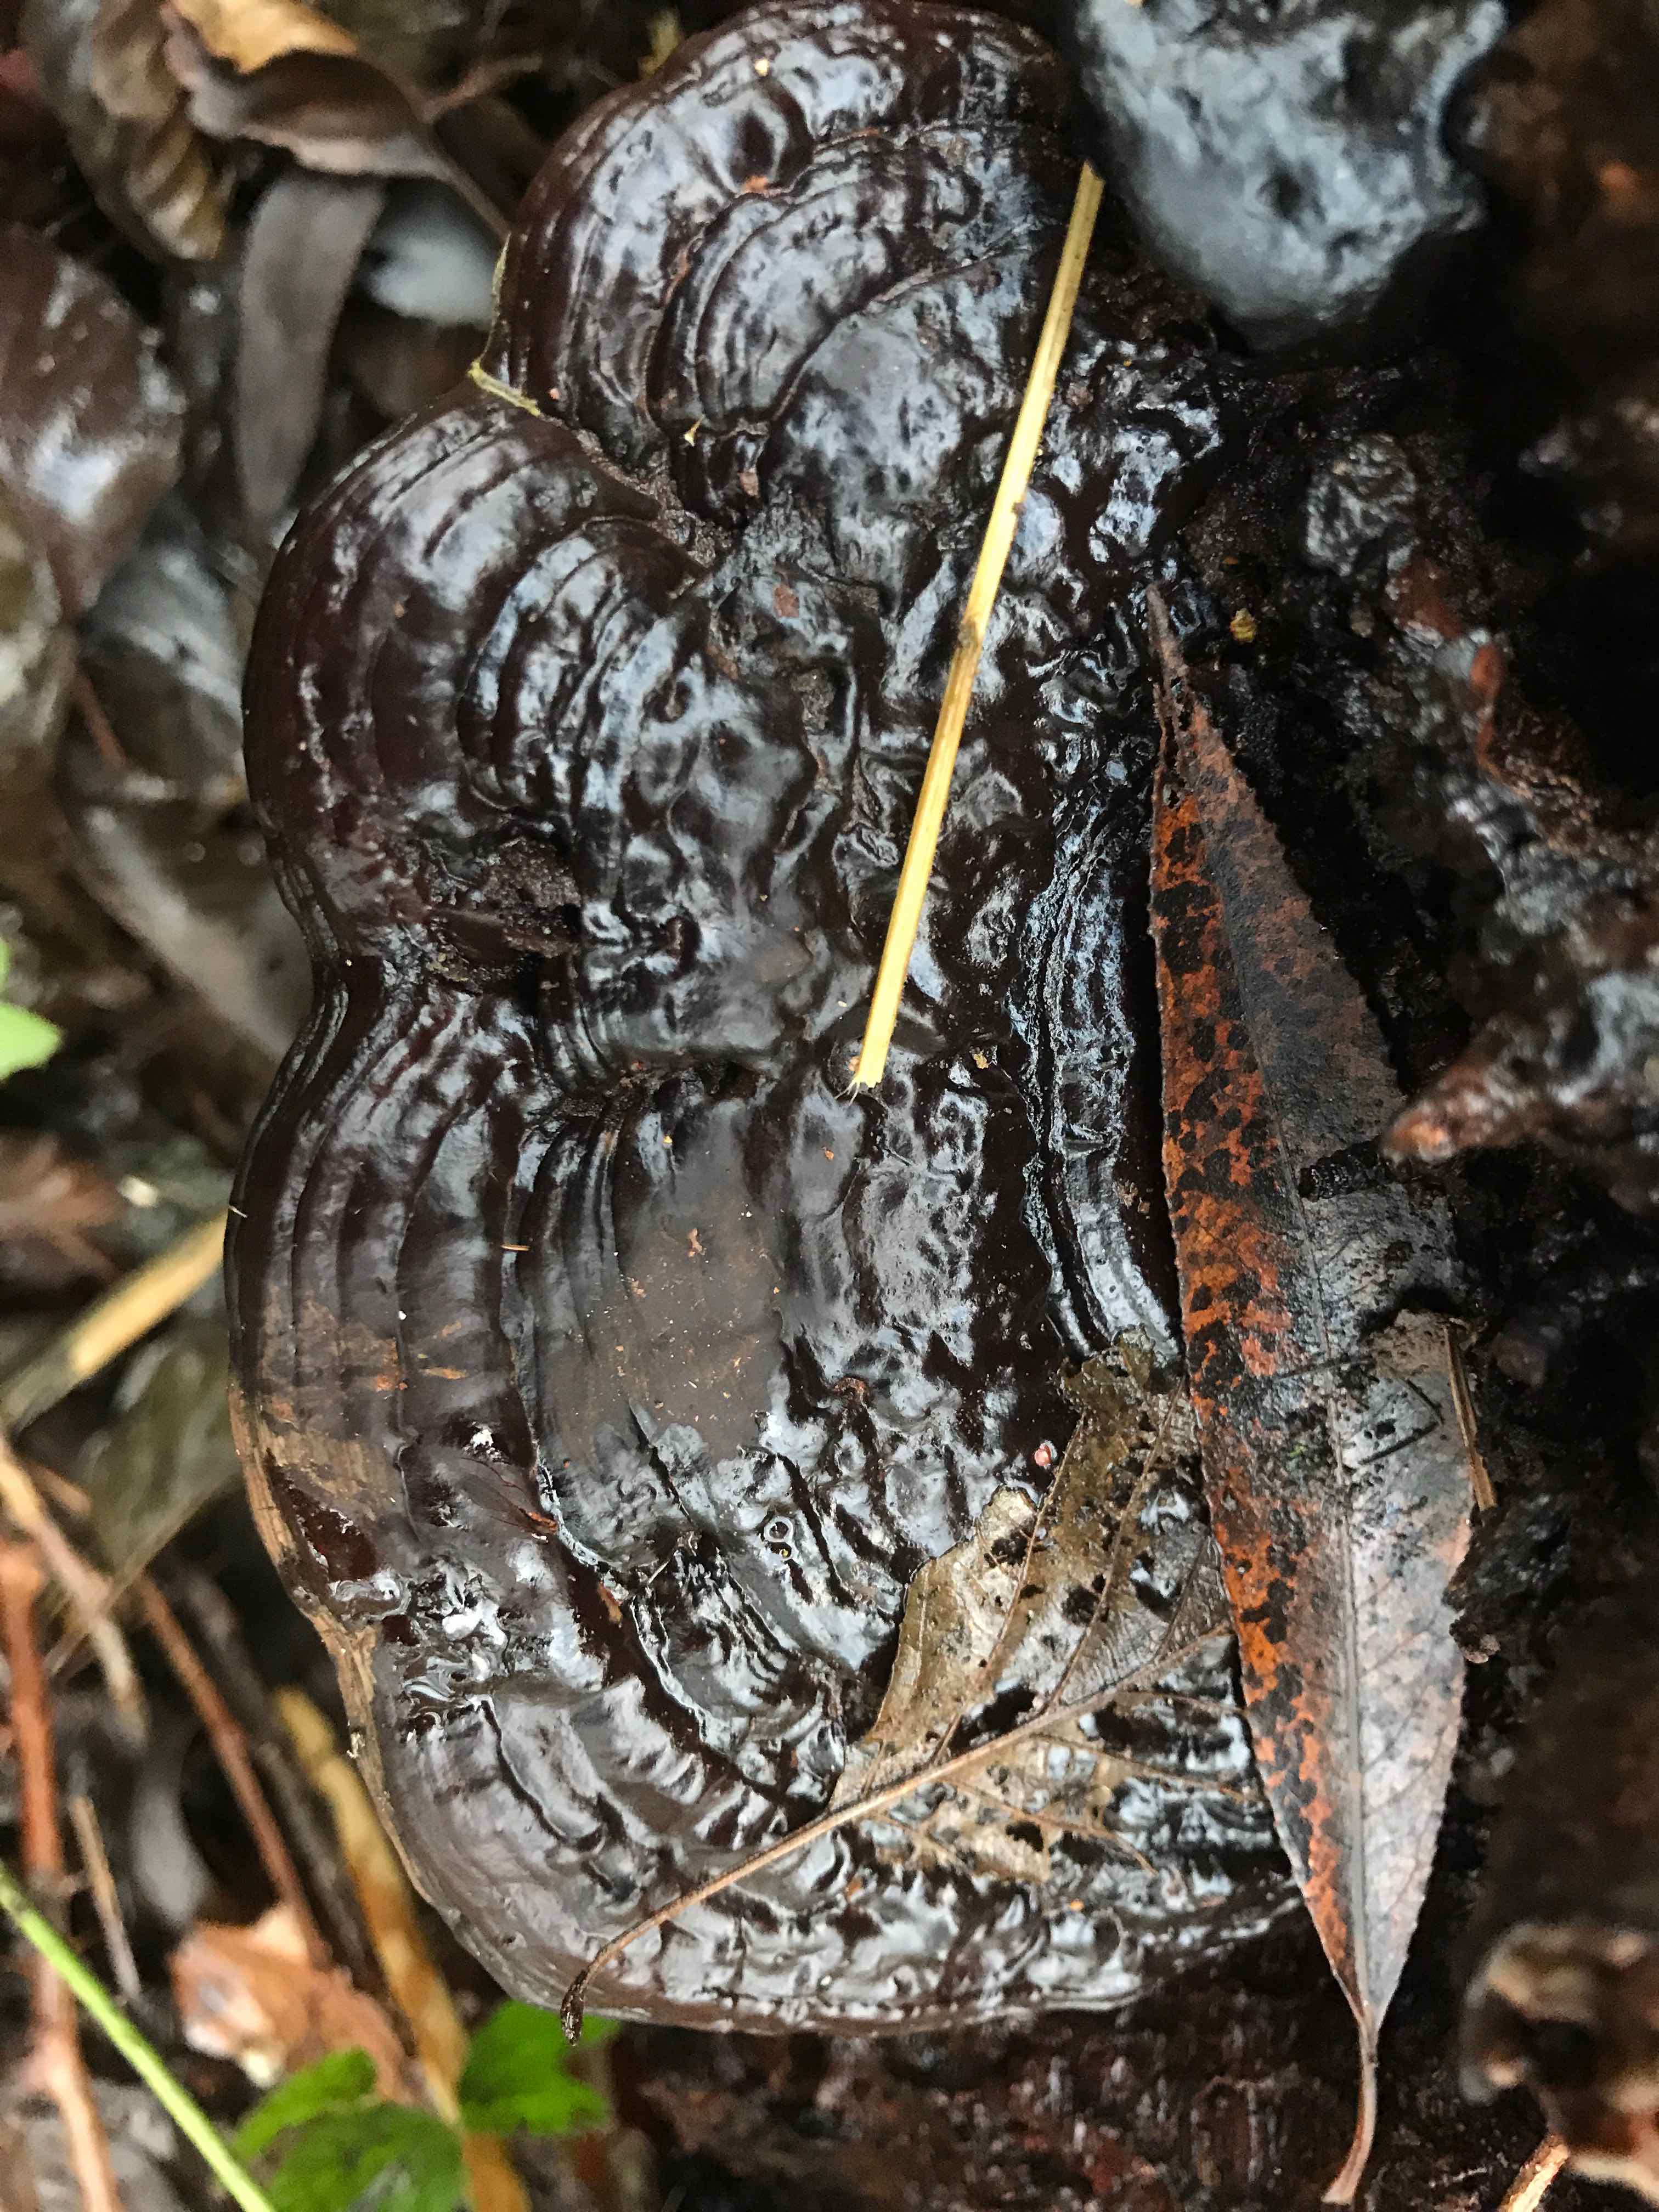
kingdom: Fungi
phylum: Basidiomycota
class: Agaricomycetes
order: Polyporales
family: Polyporaceae
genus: Ganoderma
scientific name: Ganoderma applanatum
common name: flad lakporesvamp
